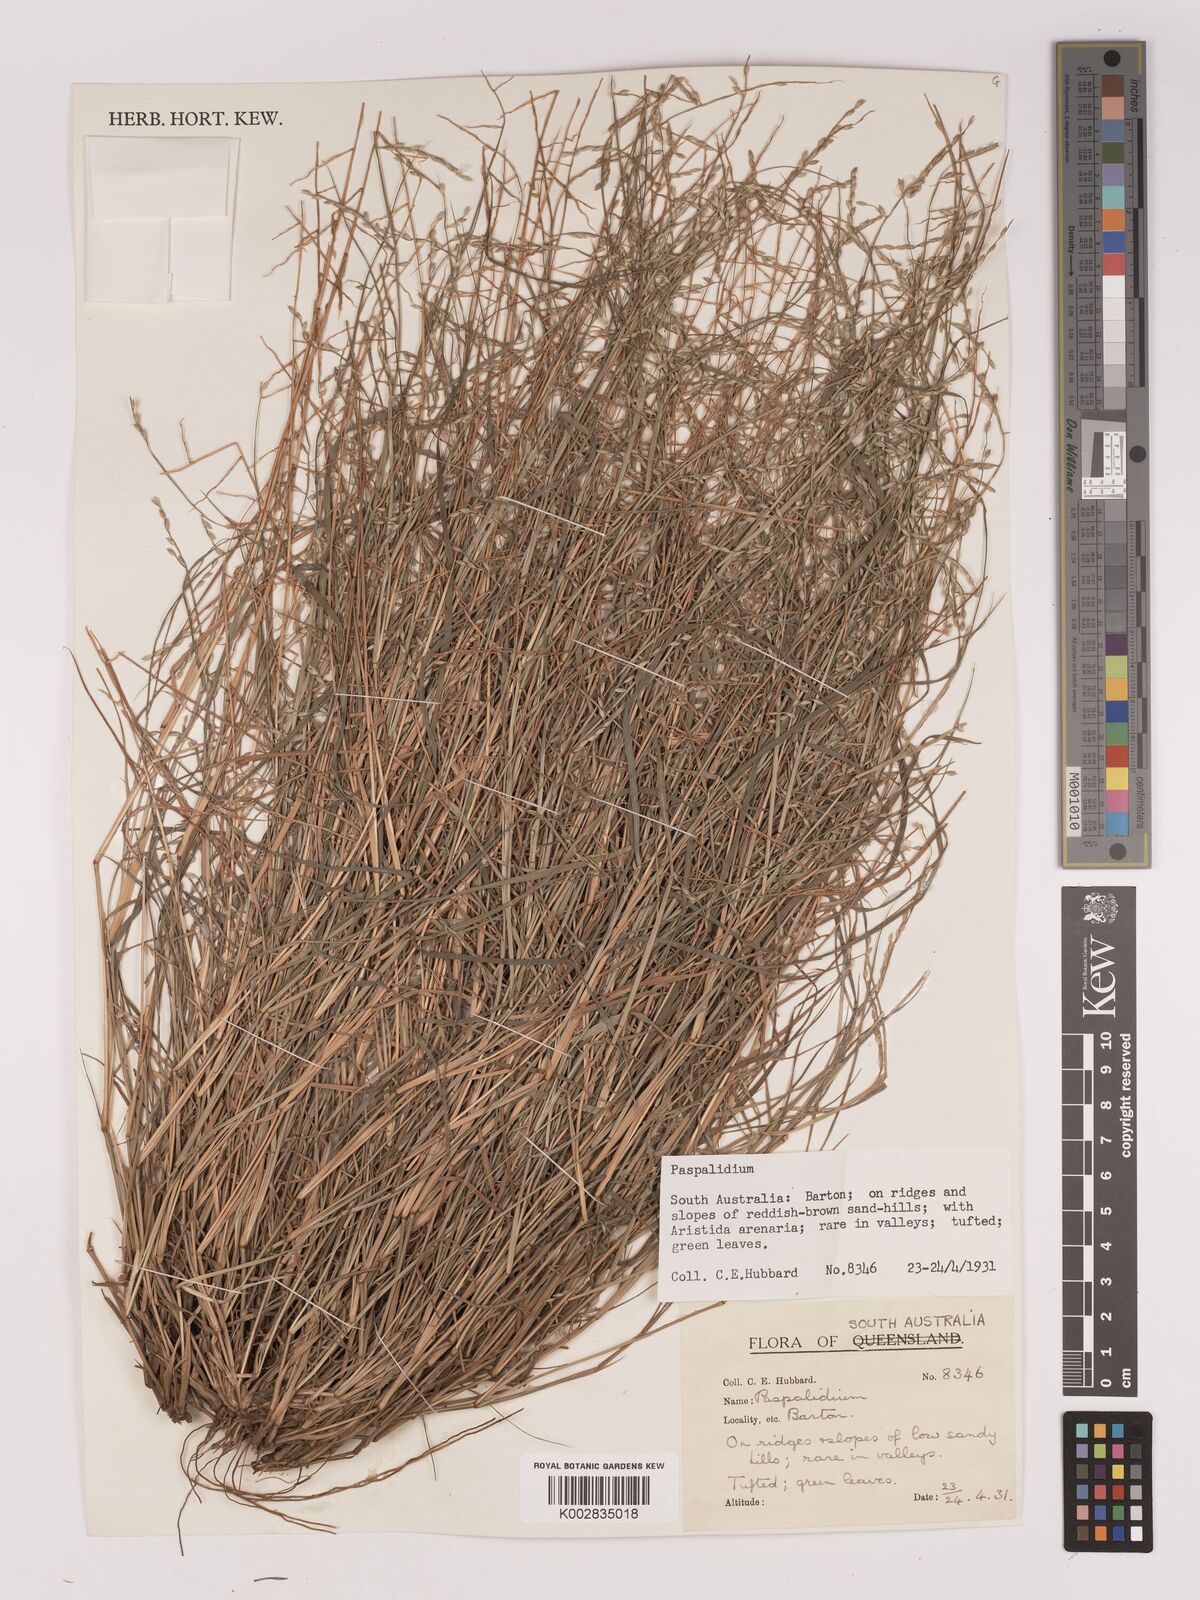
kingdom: Plantae
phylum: Tracheophyta
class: Liliopsida
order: Poales
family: Poaceae
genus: Setaria
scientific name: Setaria
